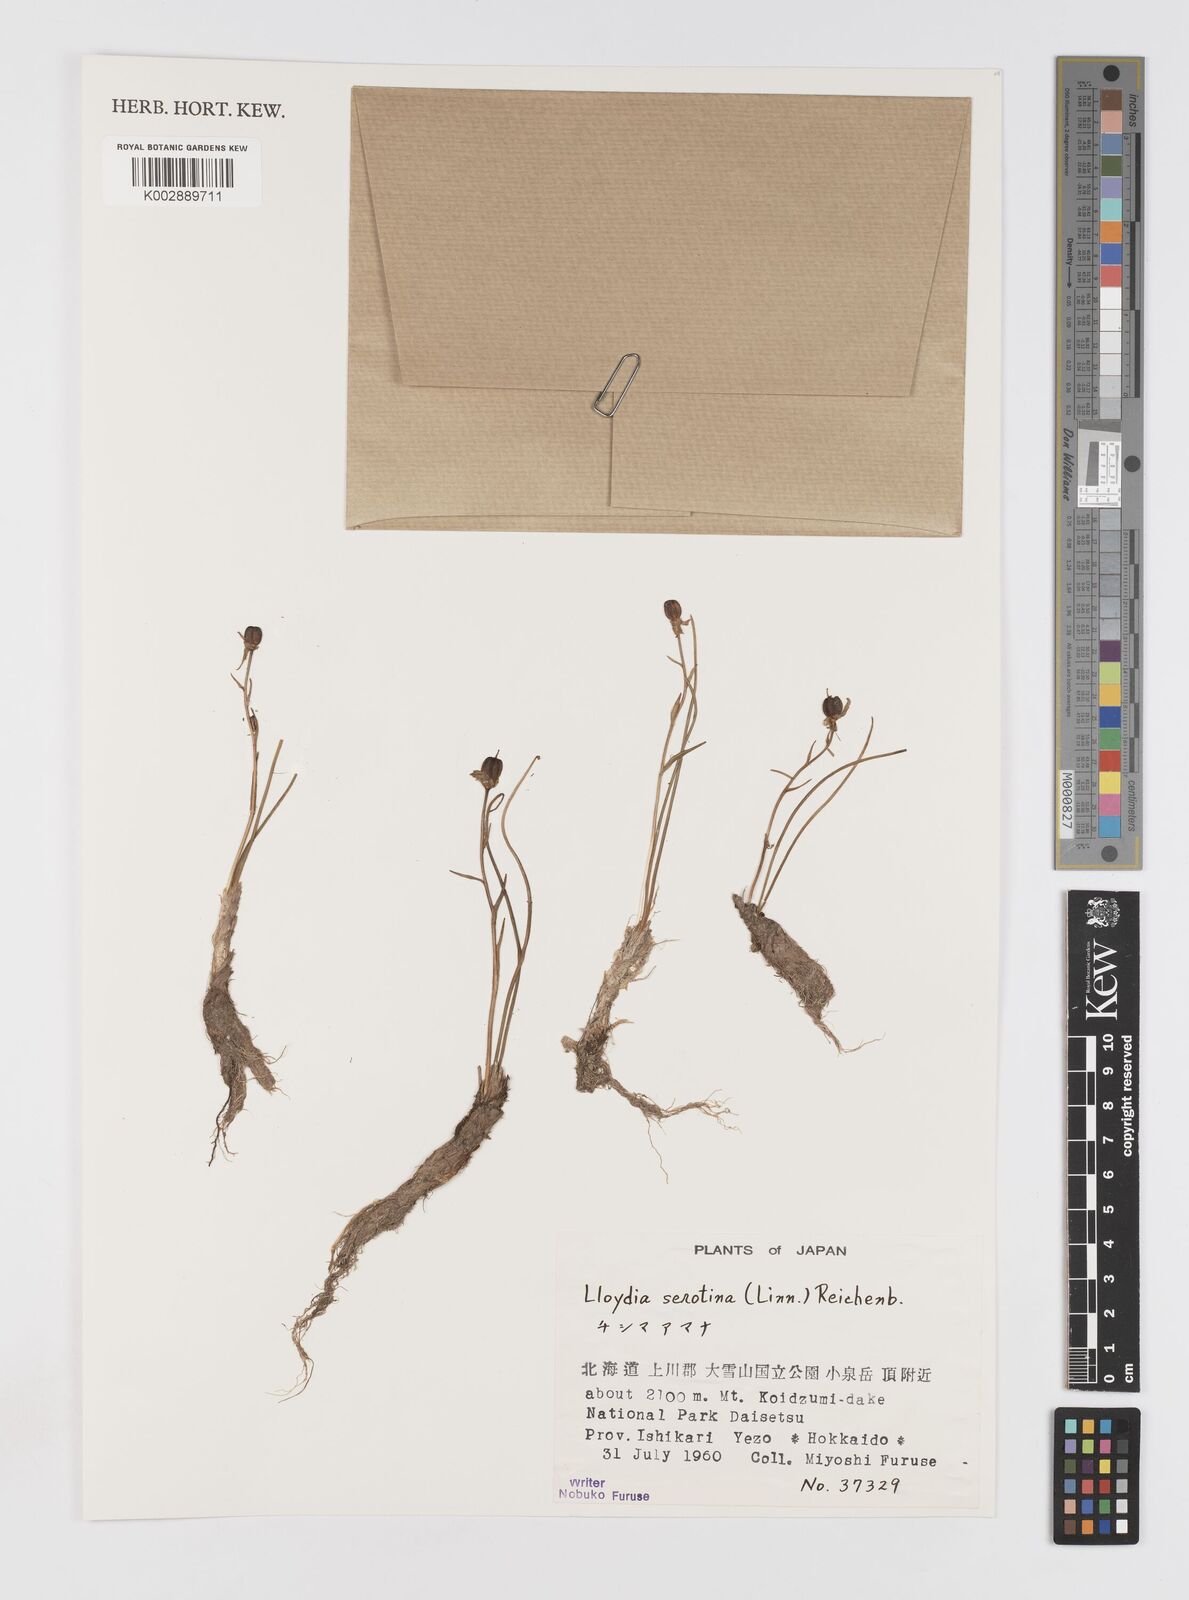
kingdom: Plantae
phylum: Tracheophyta
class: Liliopsida
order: Liliales
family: Liliaceae
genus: Gagea
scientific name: Gagea serotina
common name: Snowdon lily
